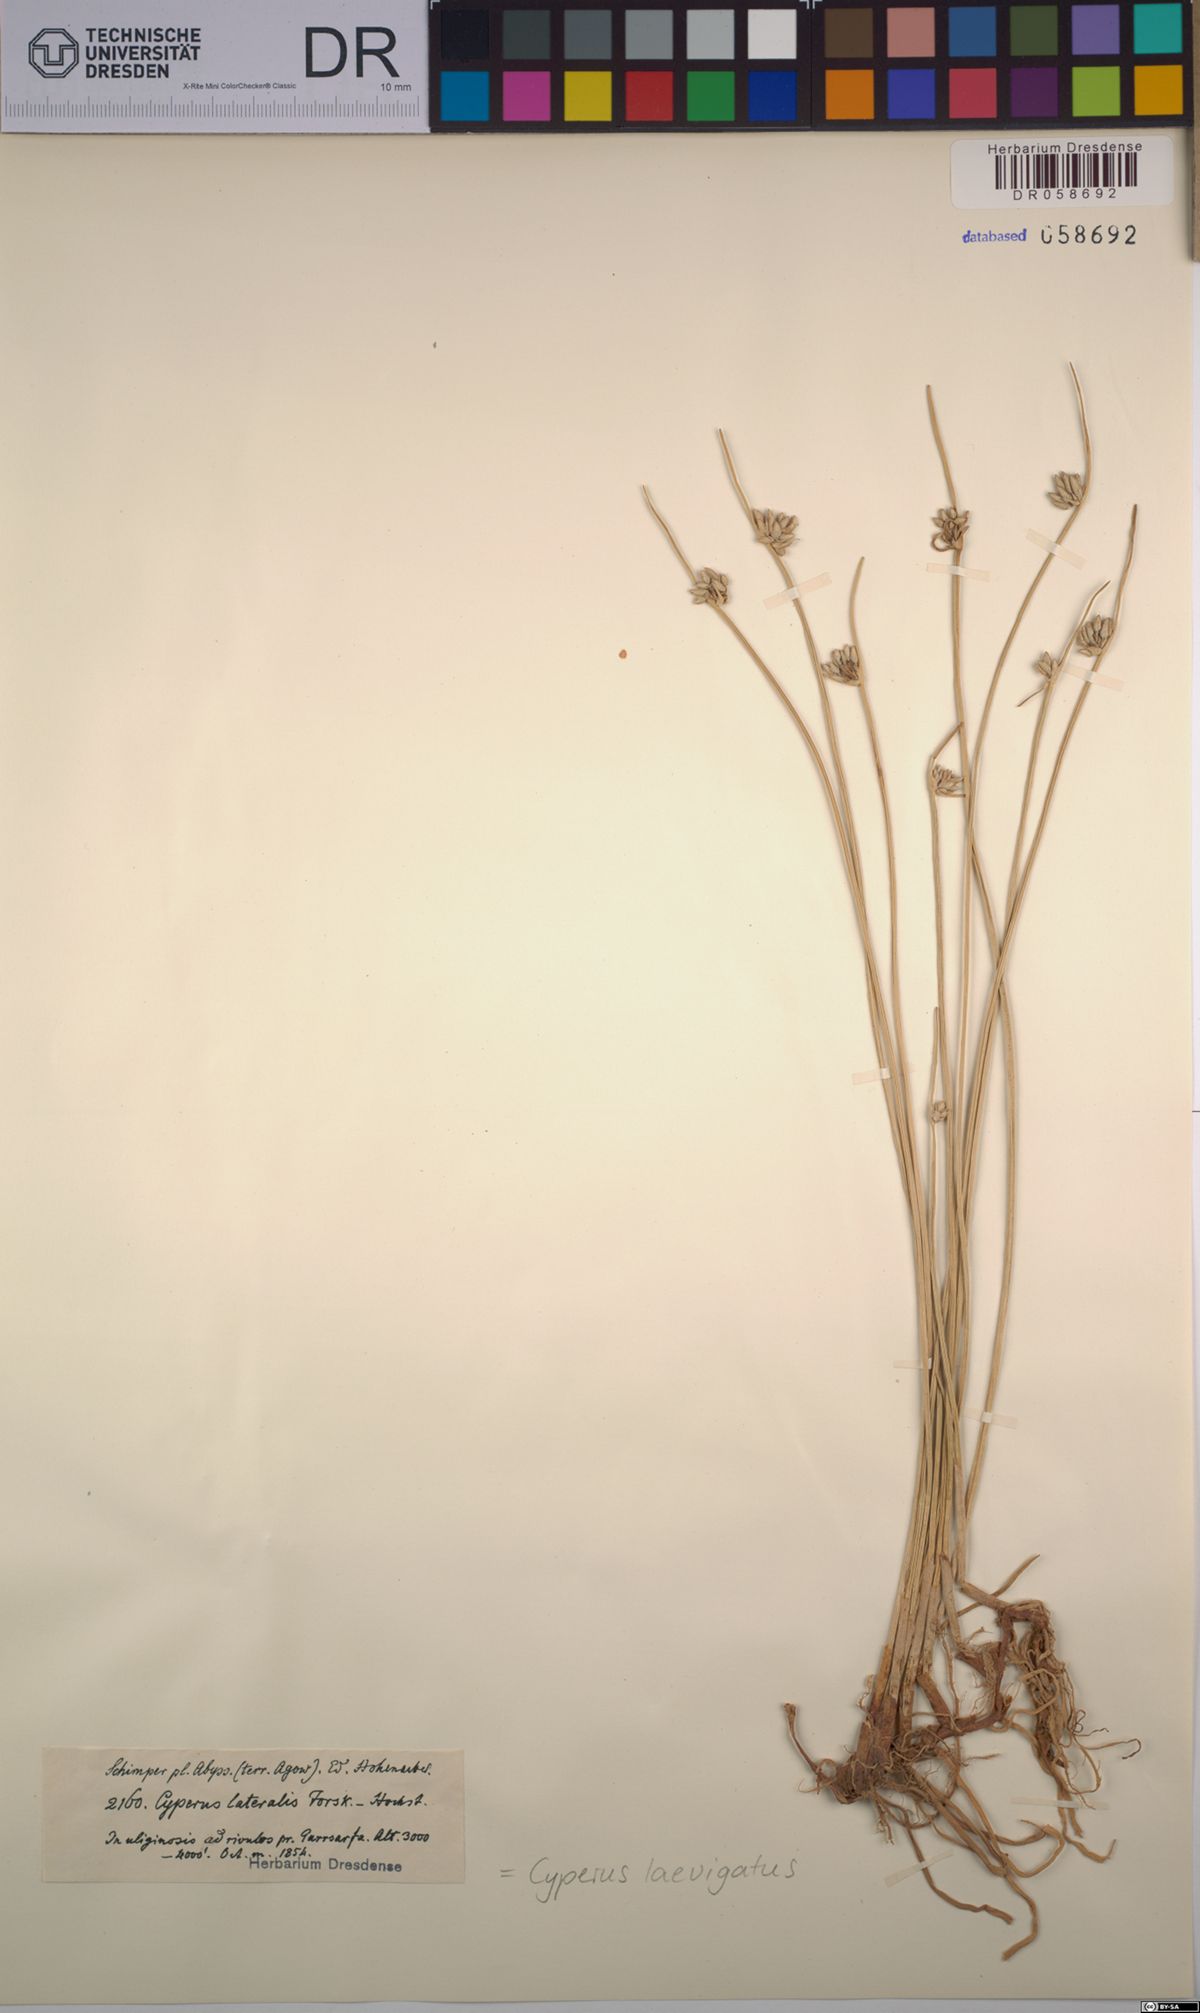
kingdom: Plantae
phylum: Tracheophyta
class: Liliopsida
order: Poales
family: Cyperaceae
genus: Cyperus
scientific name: Cyperus laevigatus
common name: Smooth flat sedge
